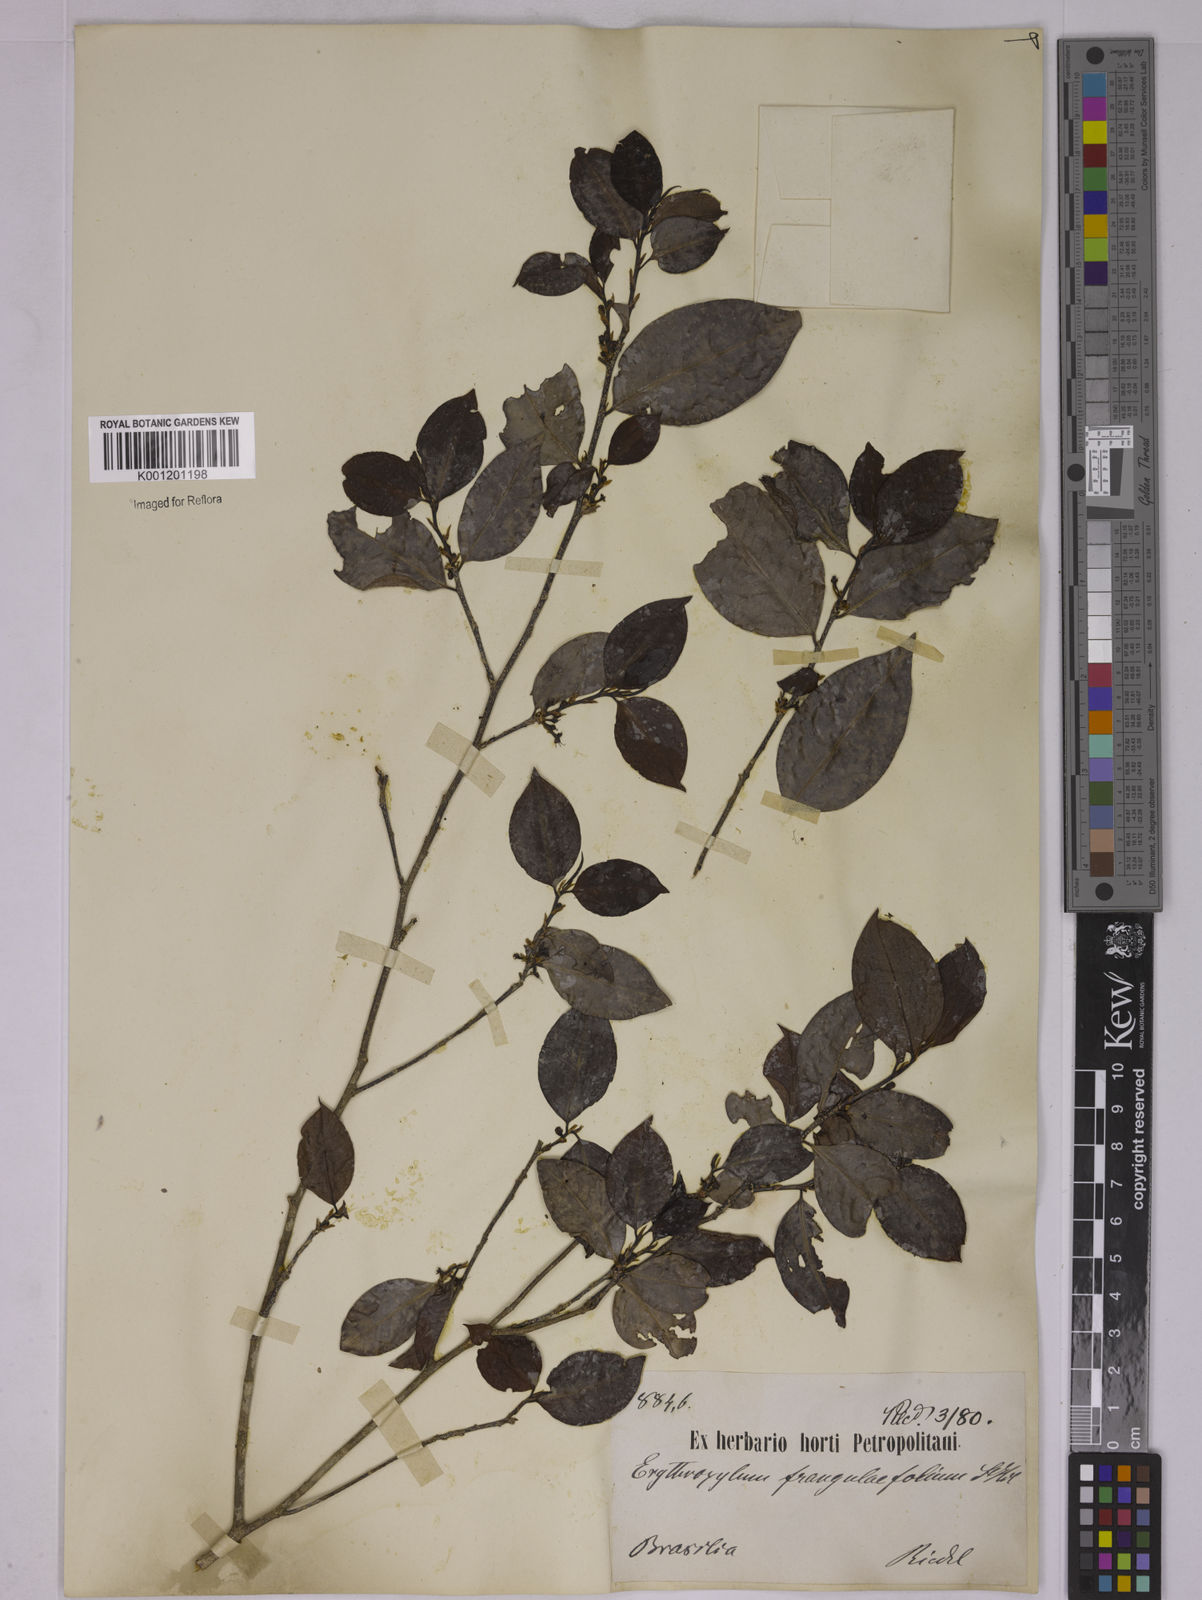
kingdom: Plantae
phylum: Tracheophyta
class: Magnoliopsida
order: Malpighiales
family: Erythroxylaceae
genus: Erythroxylum
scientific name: Erythroxylum frangulifolium
